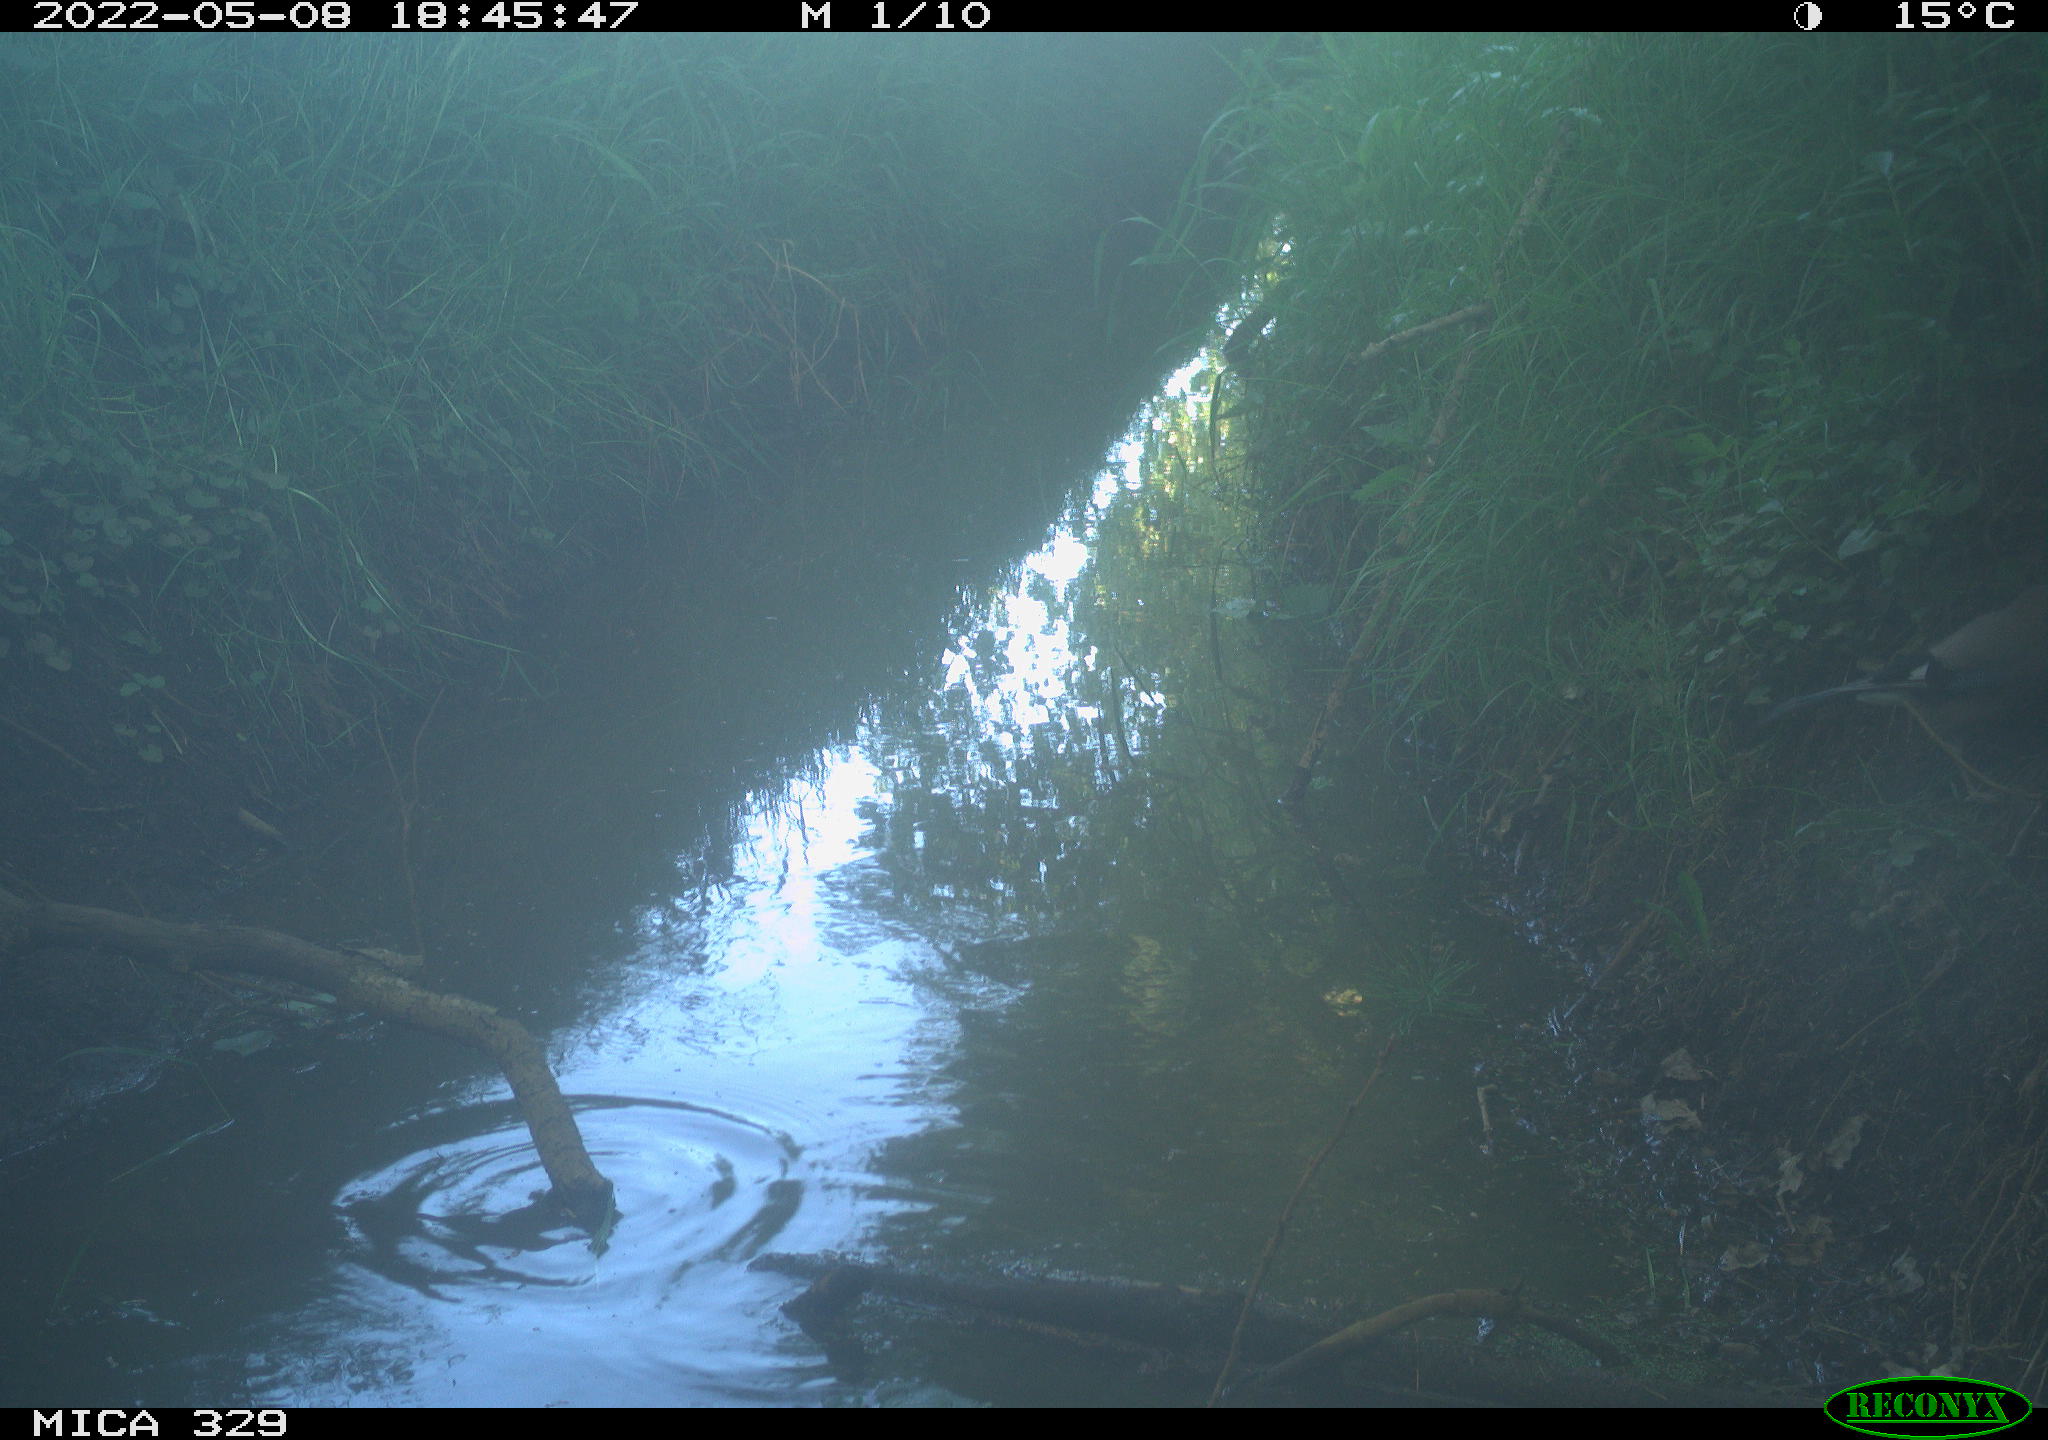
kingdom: Animalia
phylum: Chordata
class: Aves
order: Passeriformes
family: Corvidae
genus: Garrulus
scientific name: Garrulus glandarius
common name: Eurasian jay
